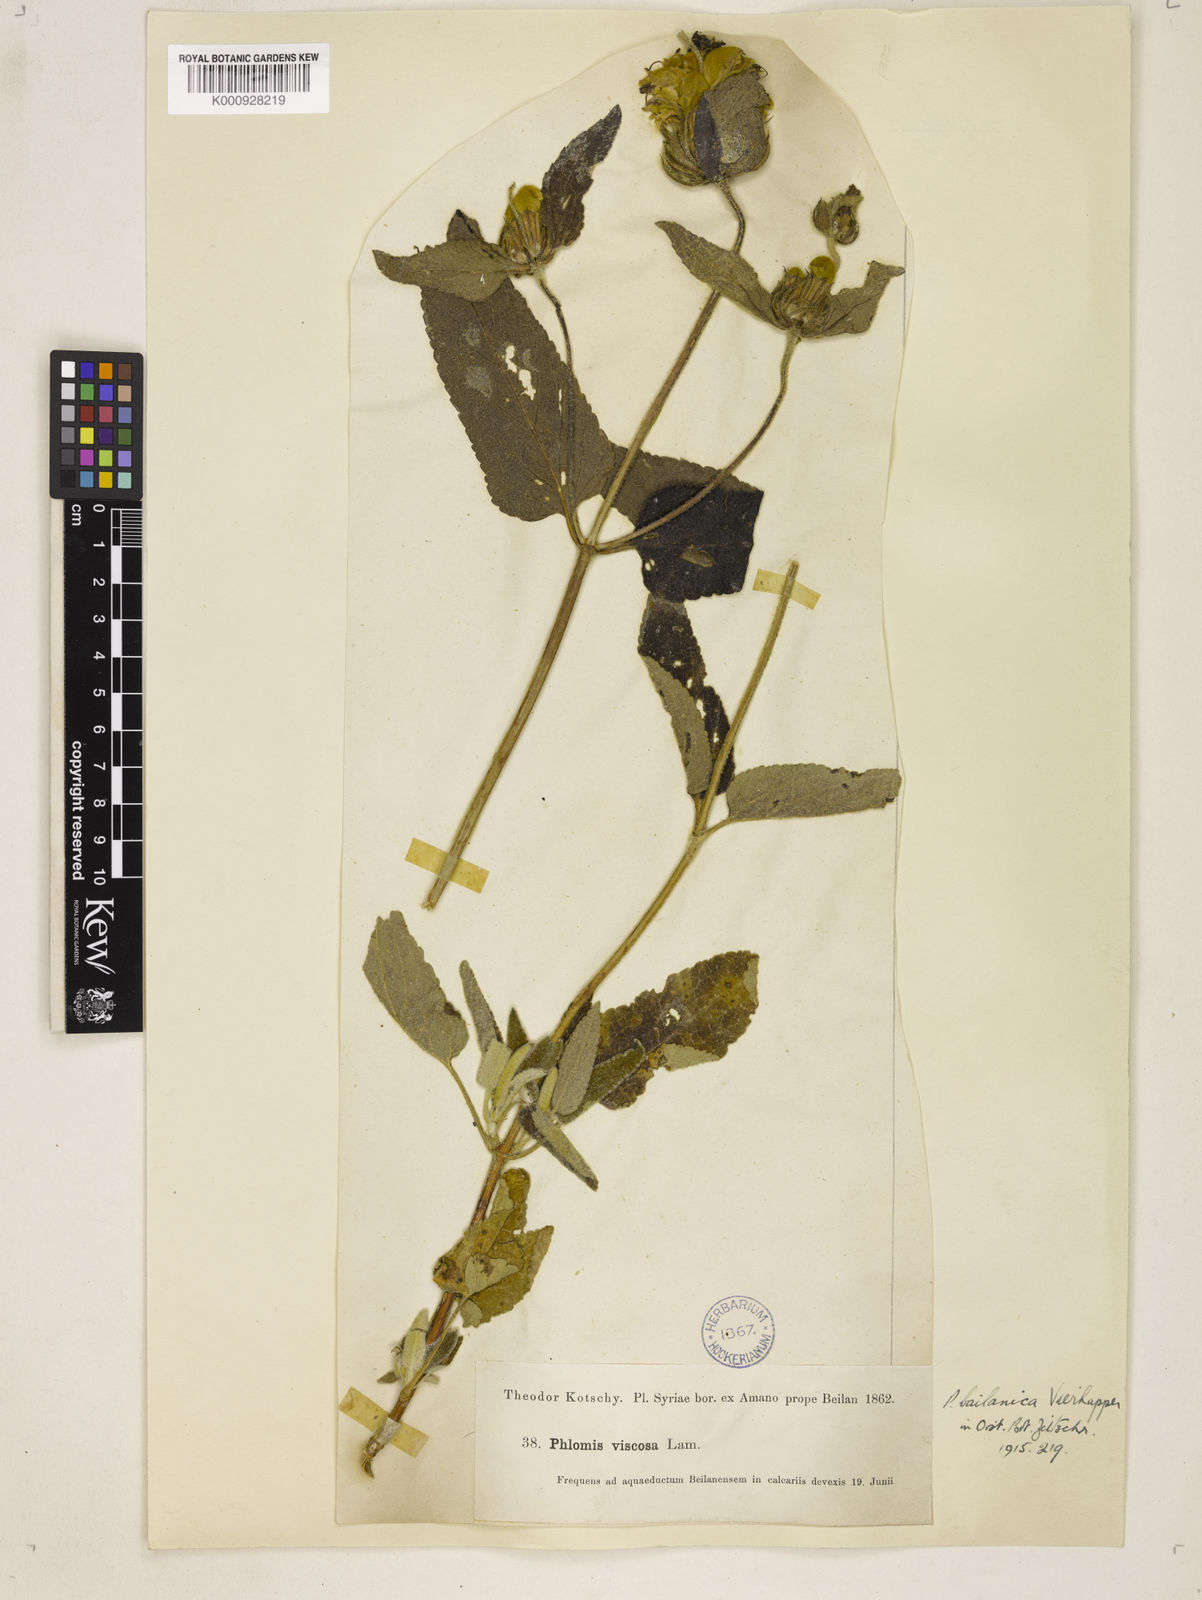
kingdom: Plantae
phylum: Tracheophyta
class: Magnoliopsida
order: Lamiales
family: Lamiaceae
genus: Phlomis
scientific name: Phlomis longifolia
